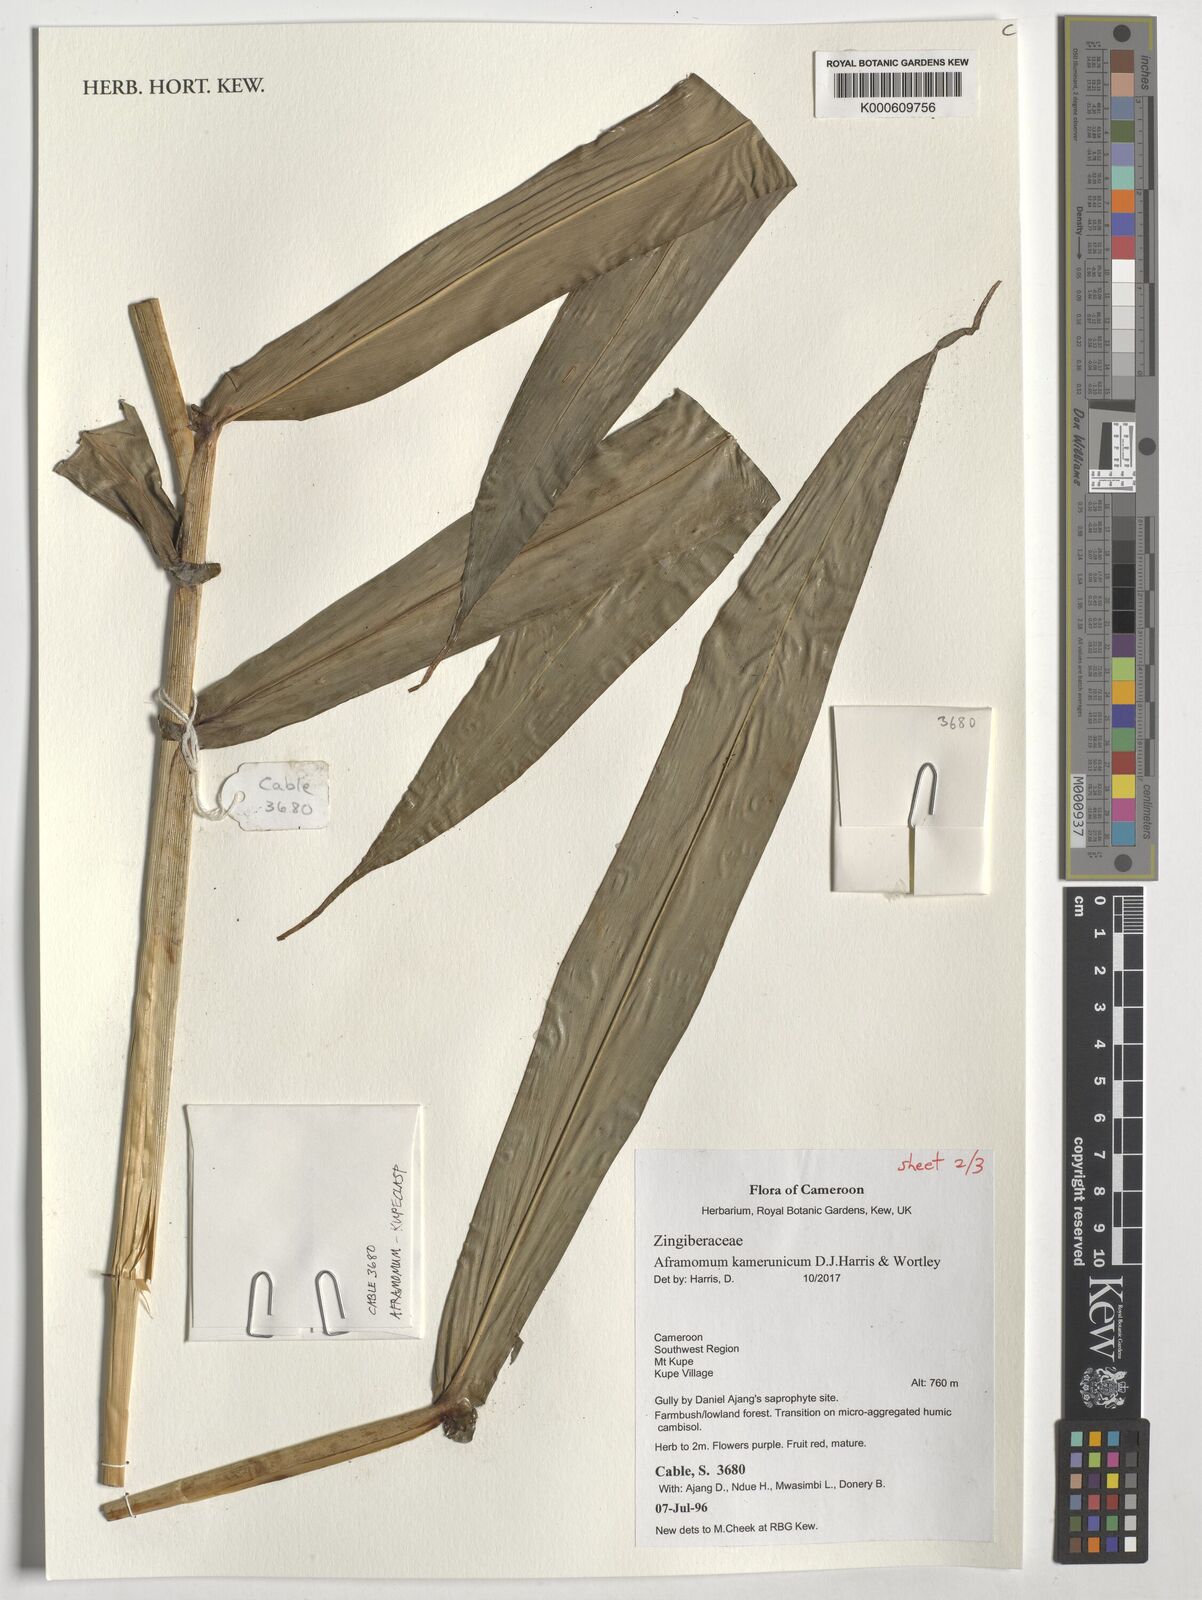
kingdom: Plantae
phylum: Tracheophyta
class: Liliopsida
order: Zingiberales
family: Zingiberaceae
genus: Aframomum
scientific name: Aframomum kamerunicum
